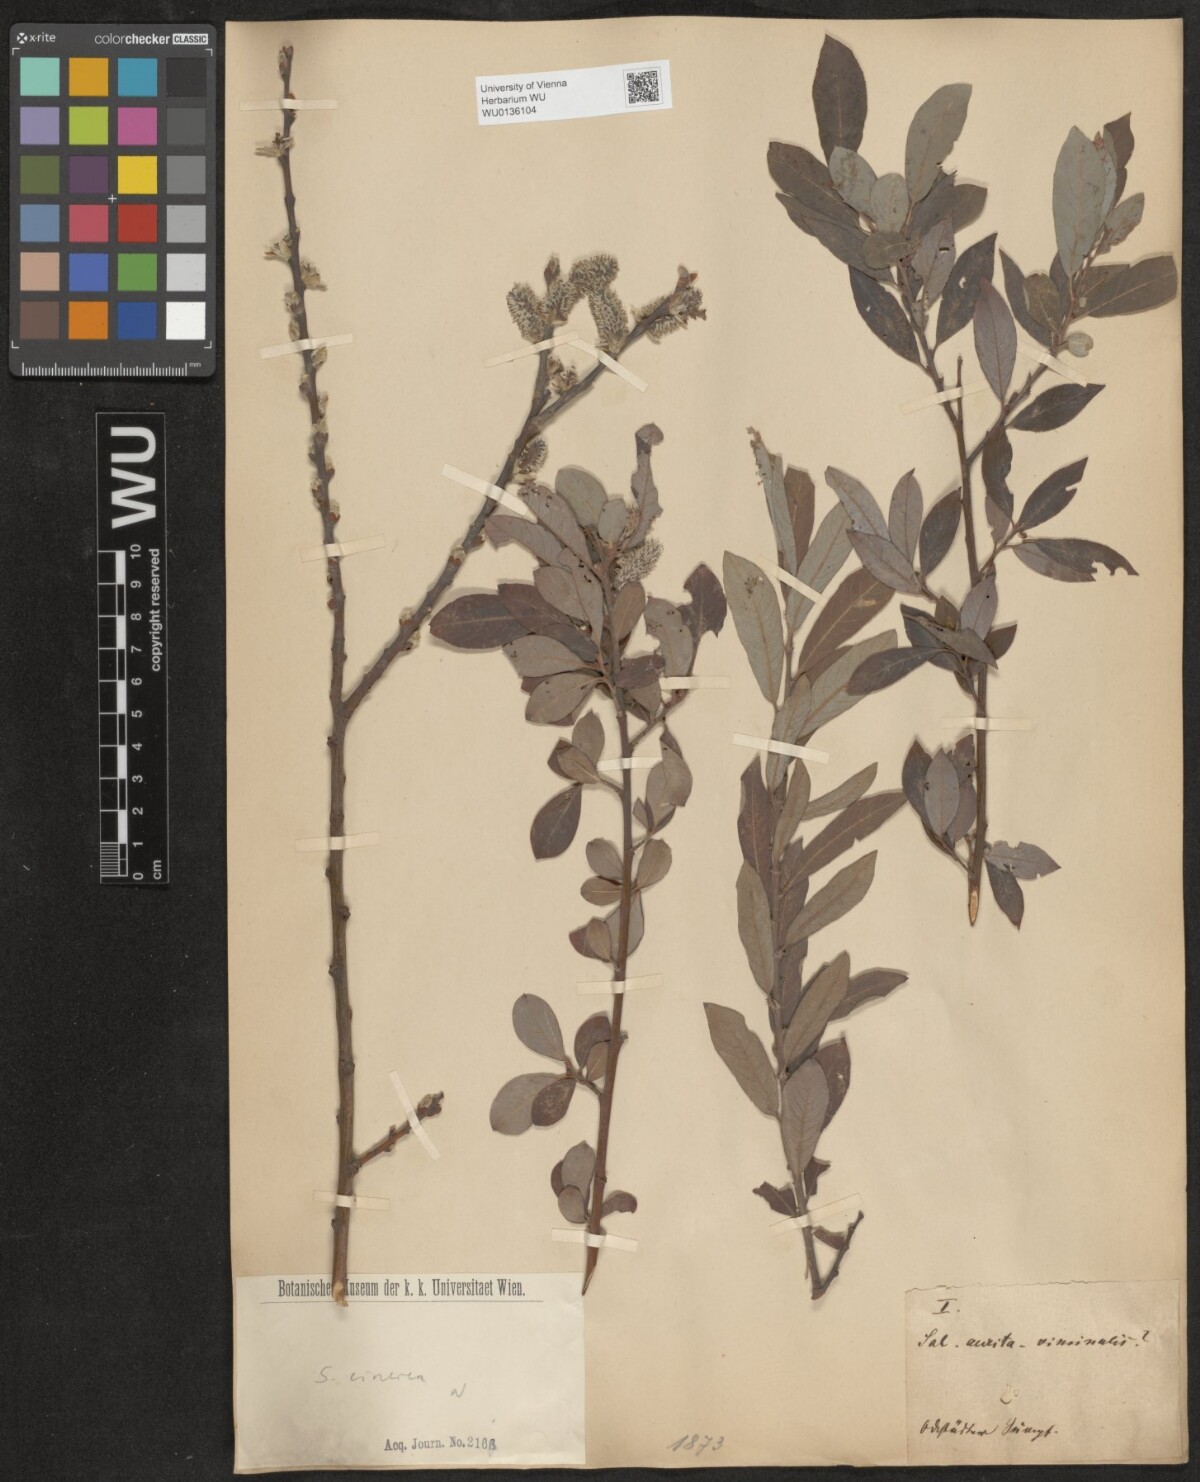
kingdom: Plantae
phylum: Tracheophyta
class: Magnoliopsida
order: Malpighiales
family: Salicaceae
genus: Salix
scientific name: Salix cinerea
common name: Common sallow
